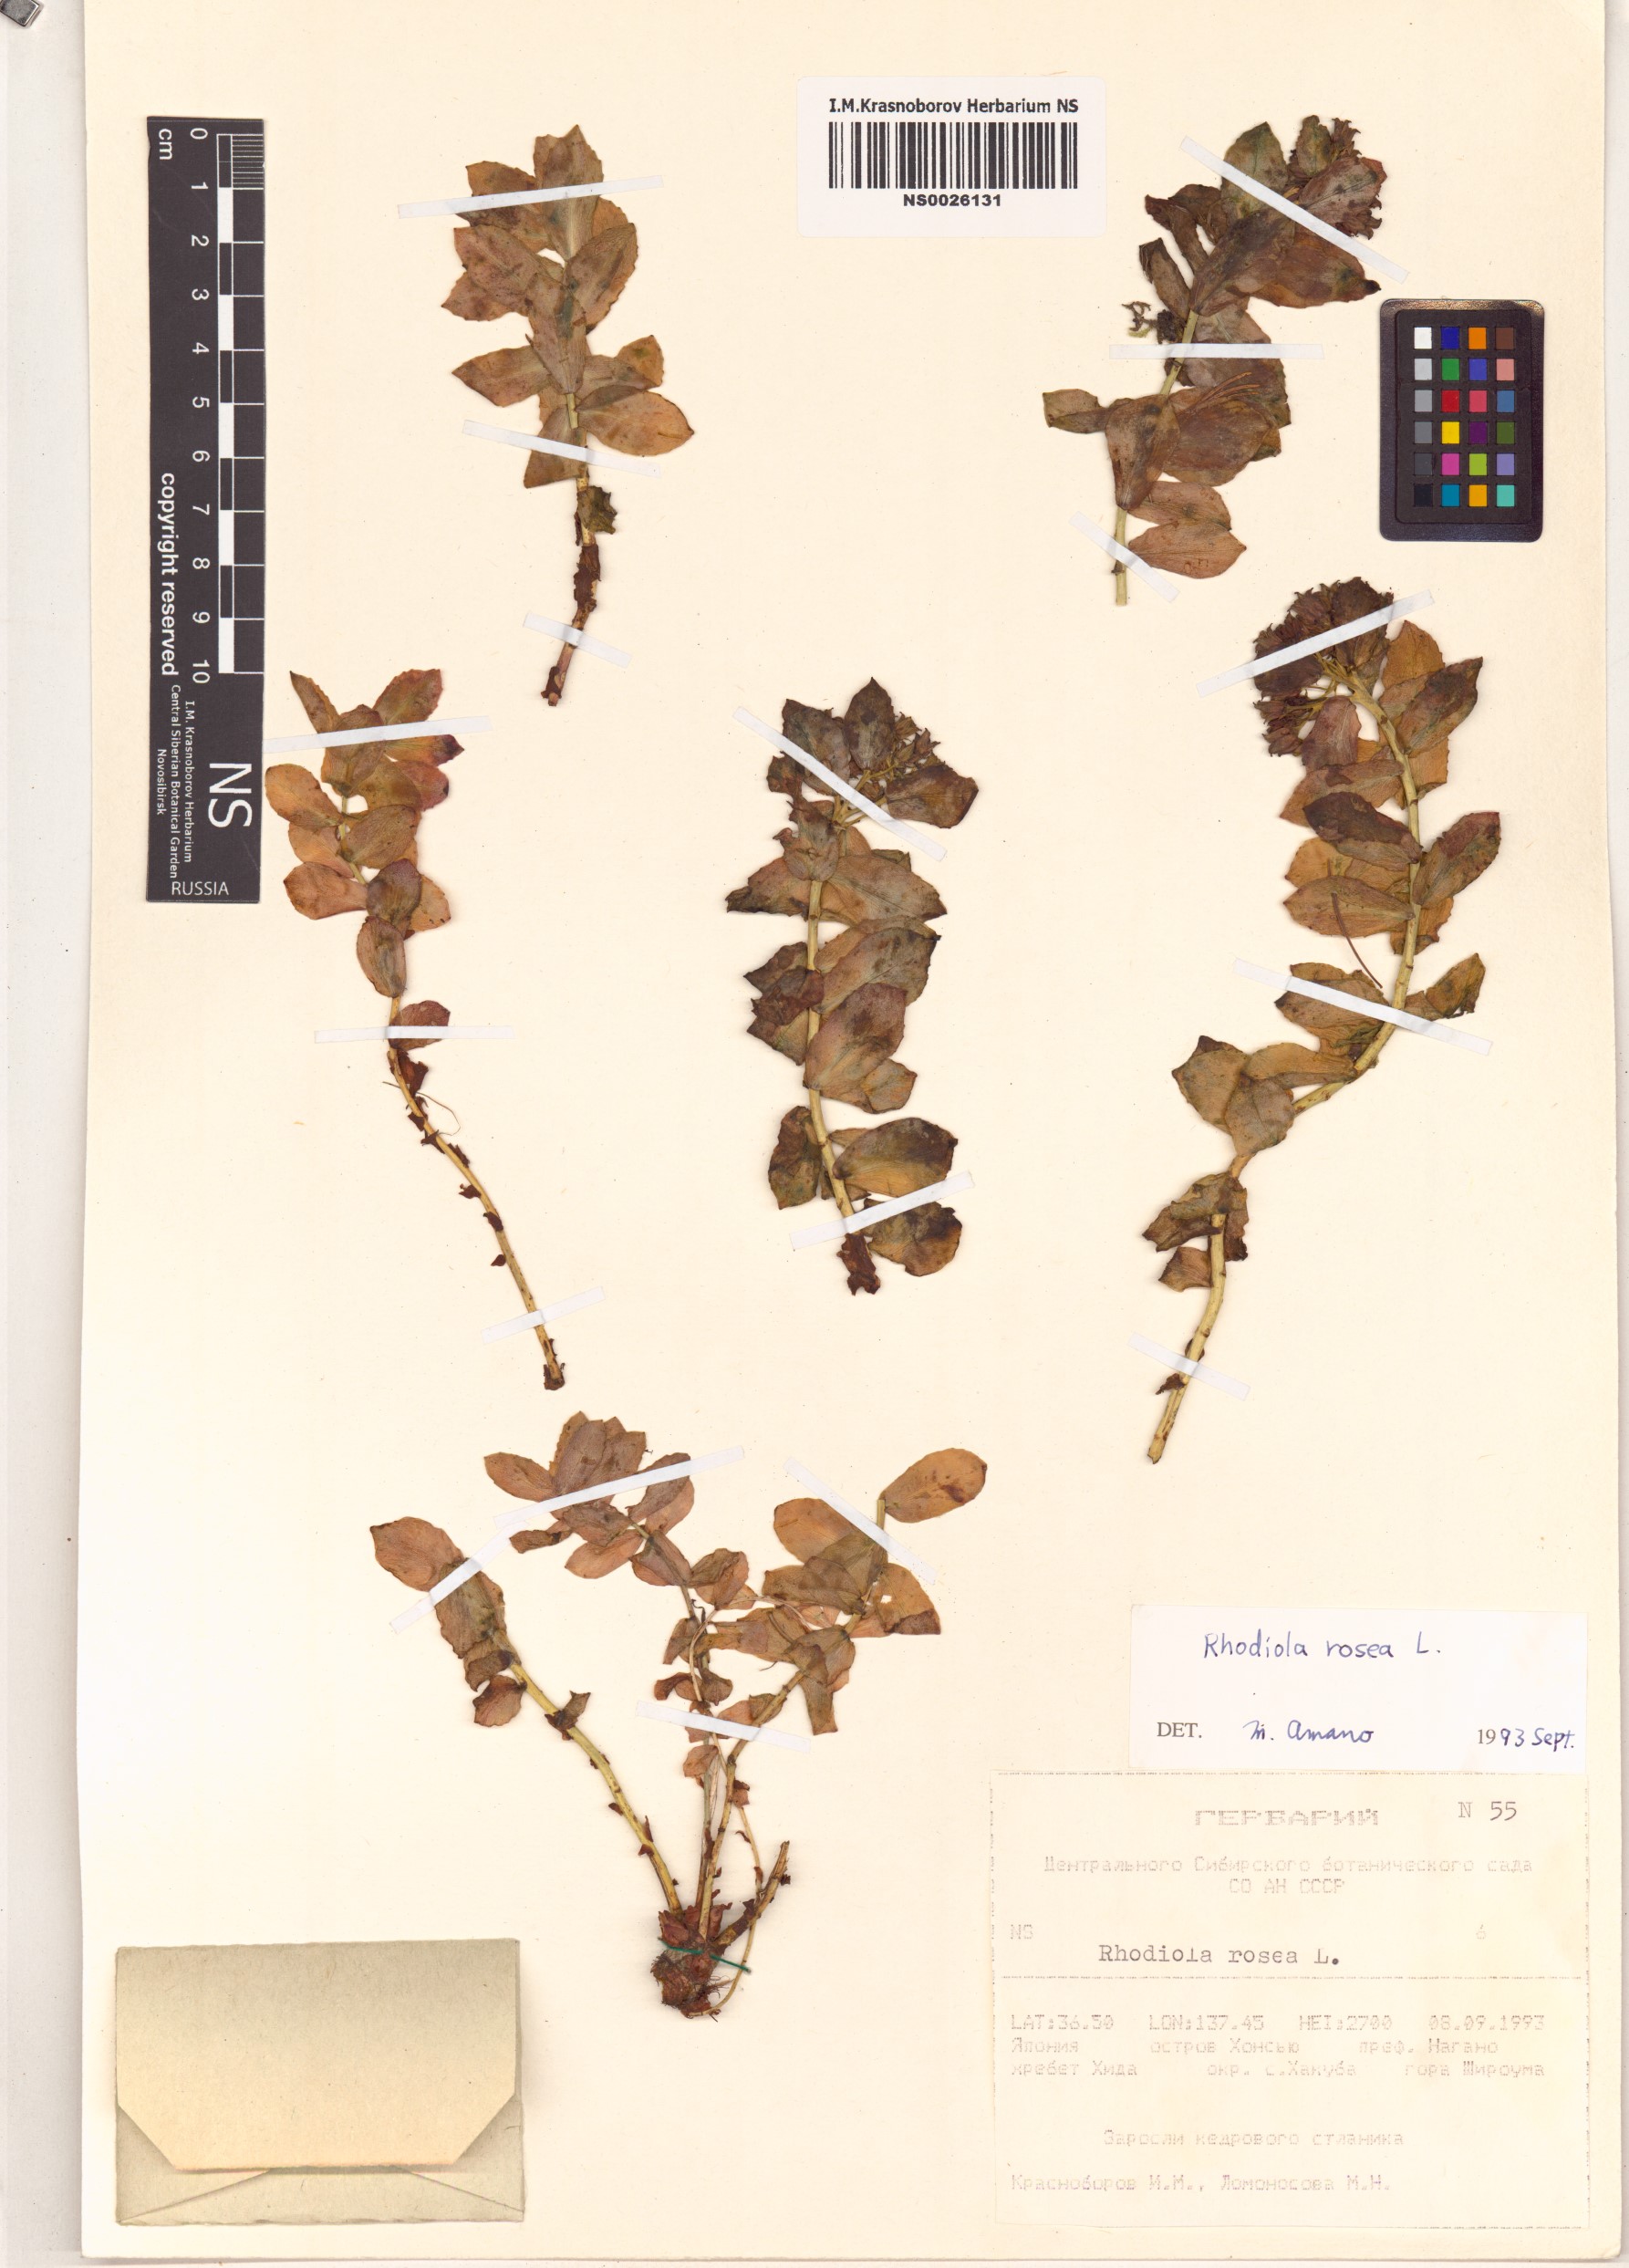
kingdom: Plantae
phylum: Tracheophyta
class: Magnoliopsida
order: Saxifragales
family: Crassulaceae
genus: Rhodiola
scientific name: Rhodiola rosea
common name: Roseroot
